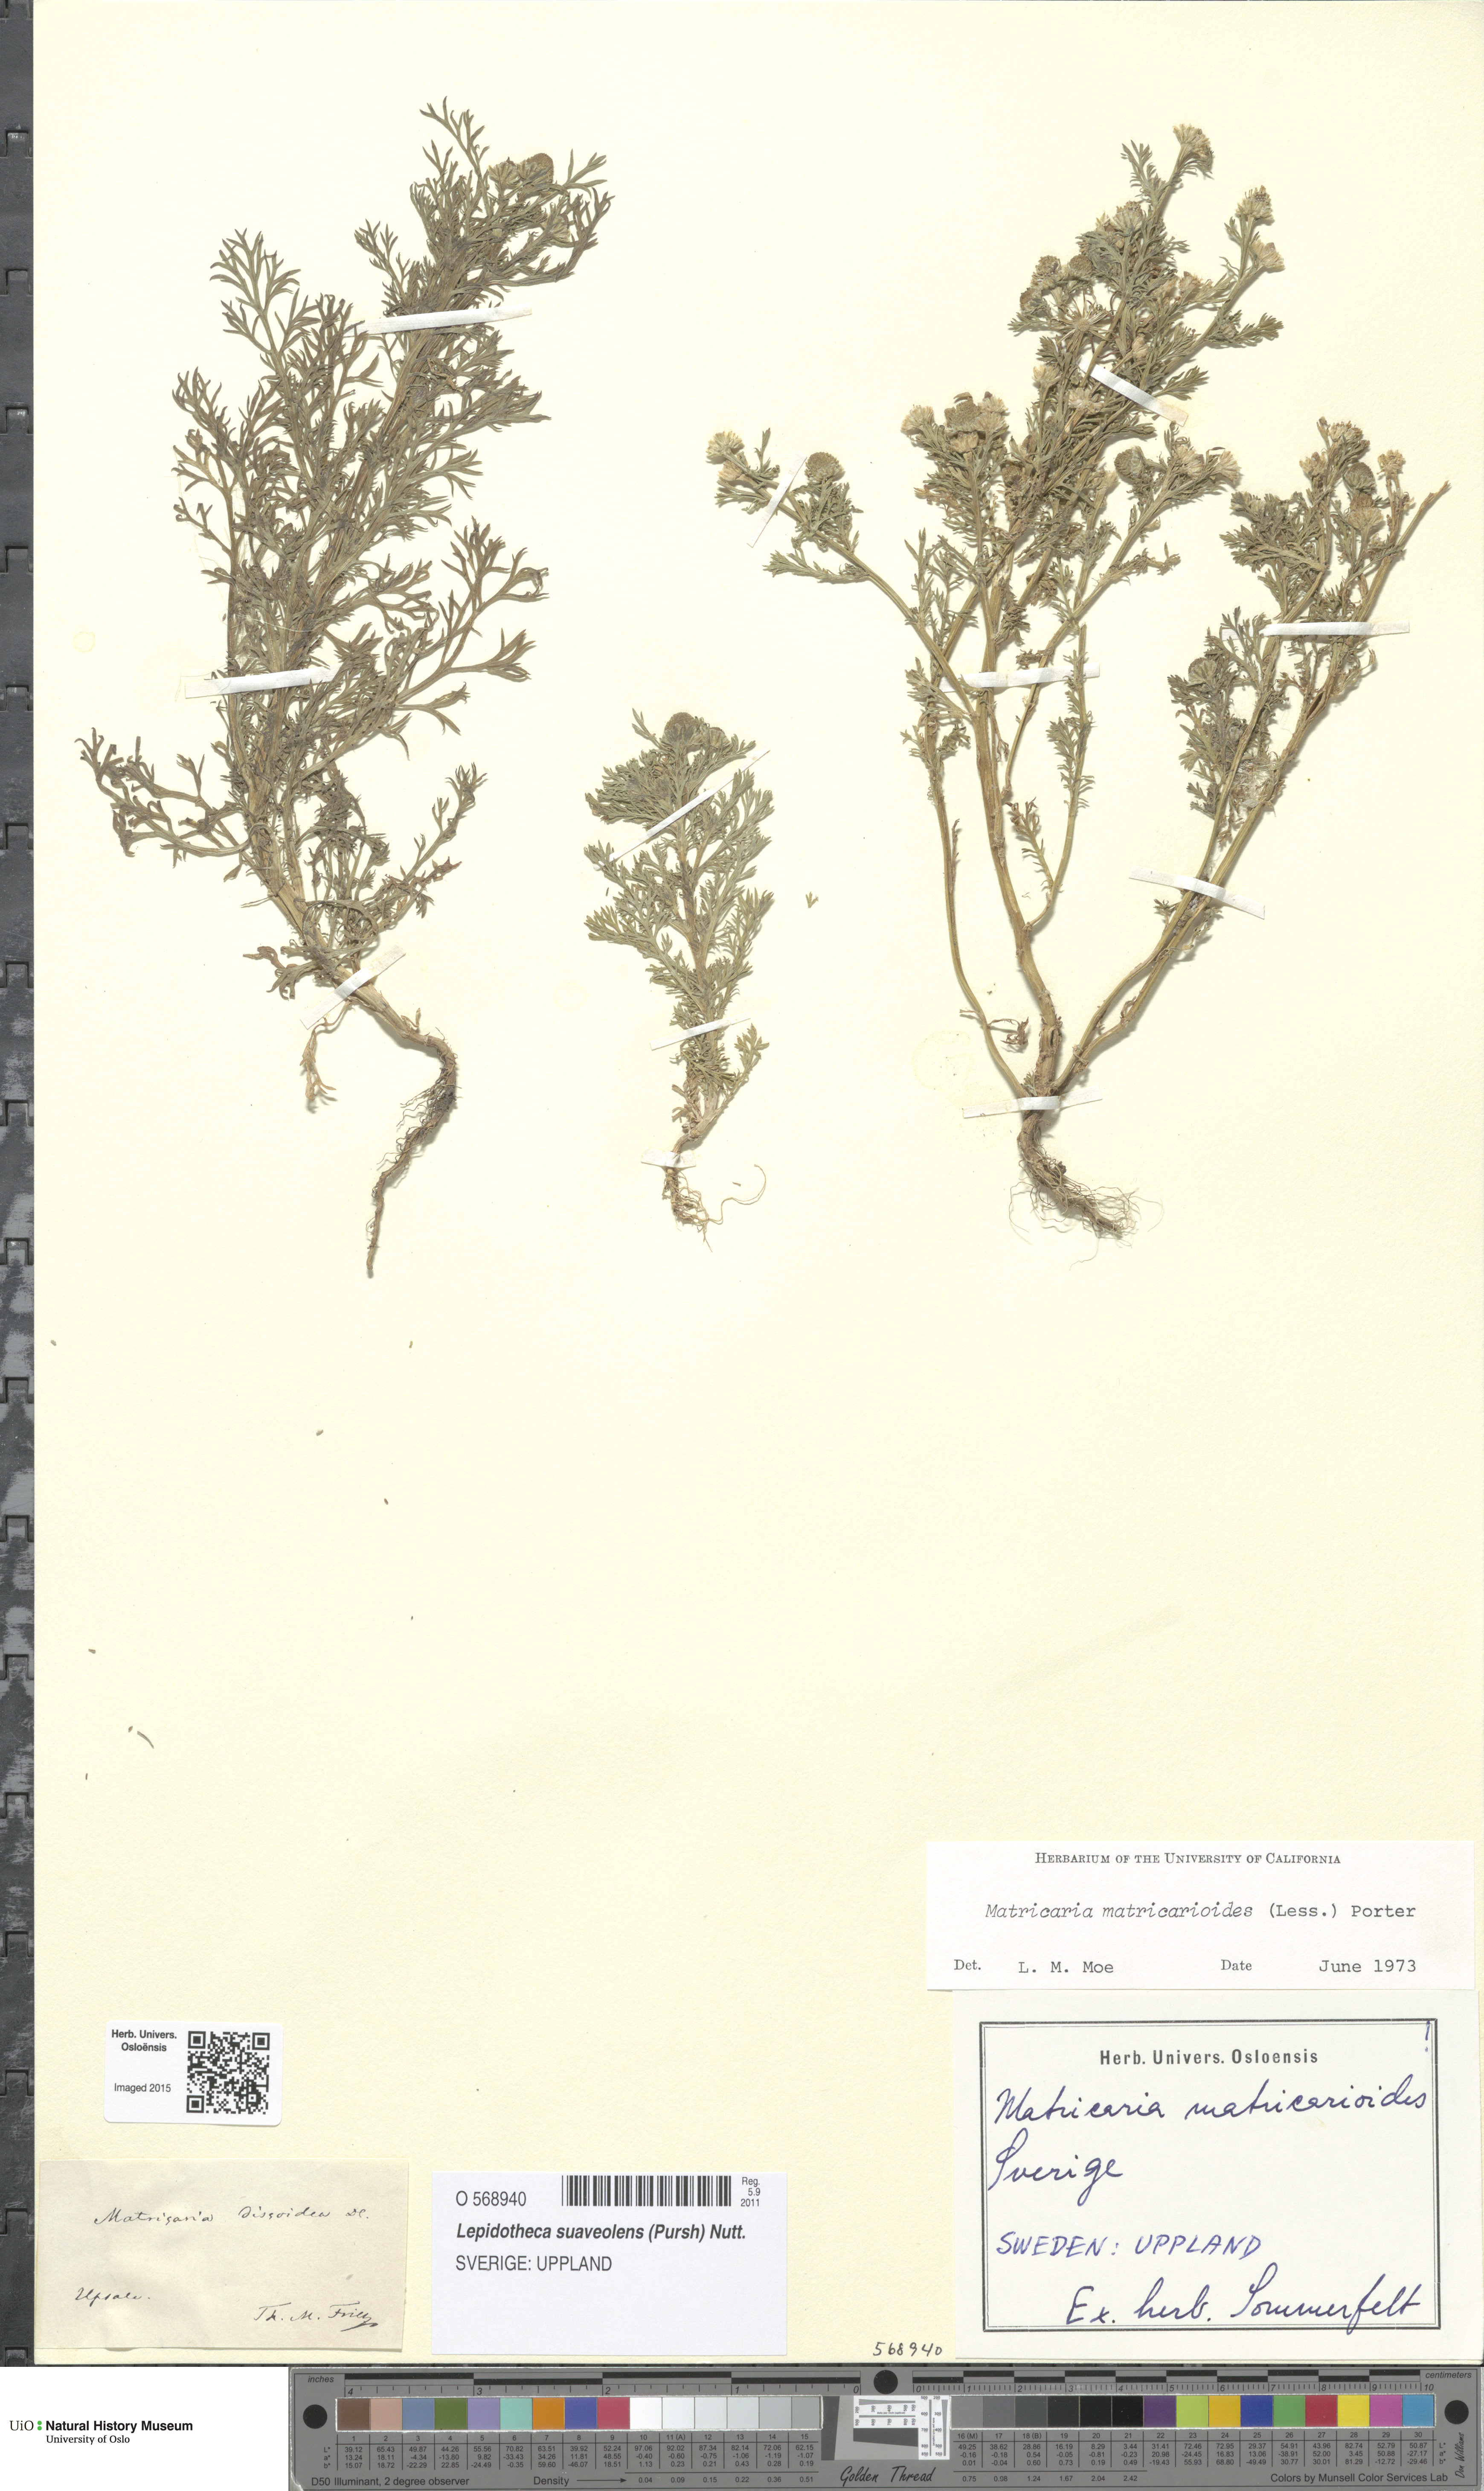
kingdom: Plantae
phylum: Tracheophyta
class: Magnoliopsida
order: Asterales
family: Asteraceae
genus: Matricaria
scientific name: Matricaria discoidea
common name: Disc mayweed
